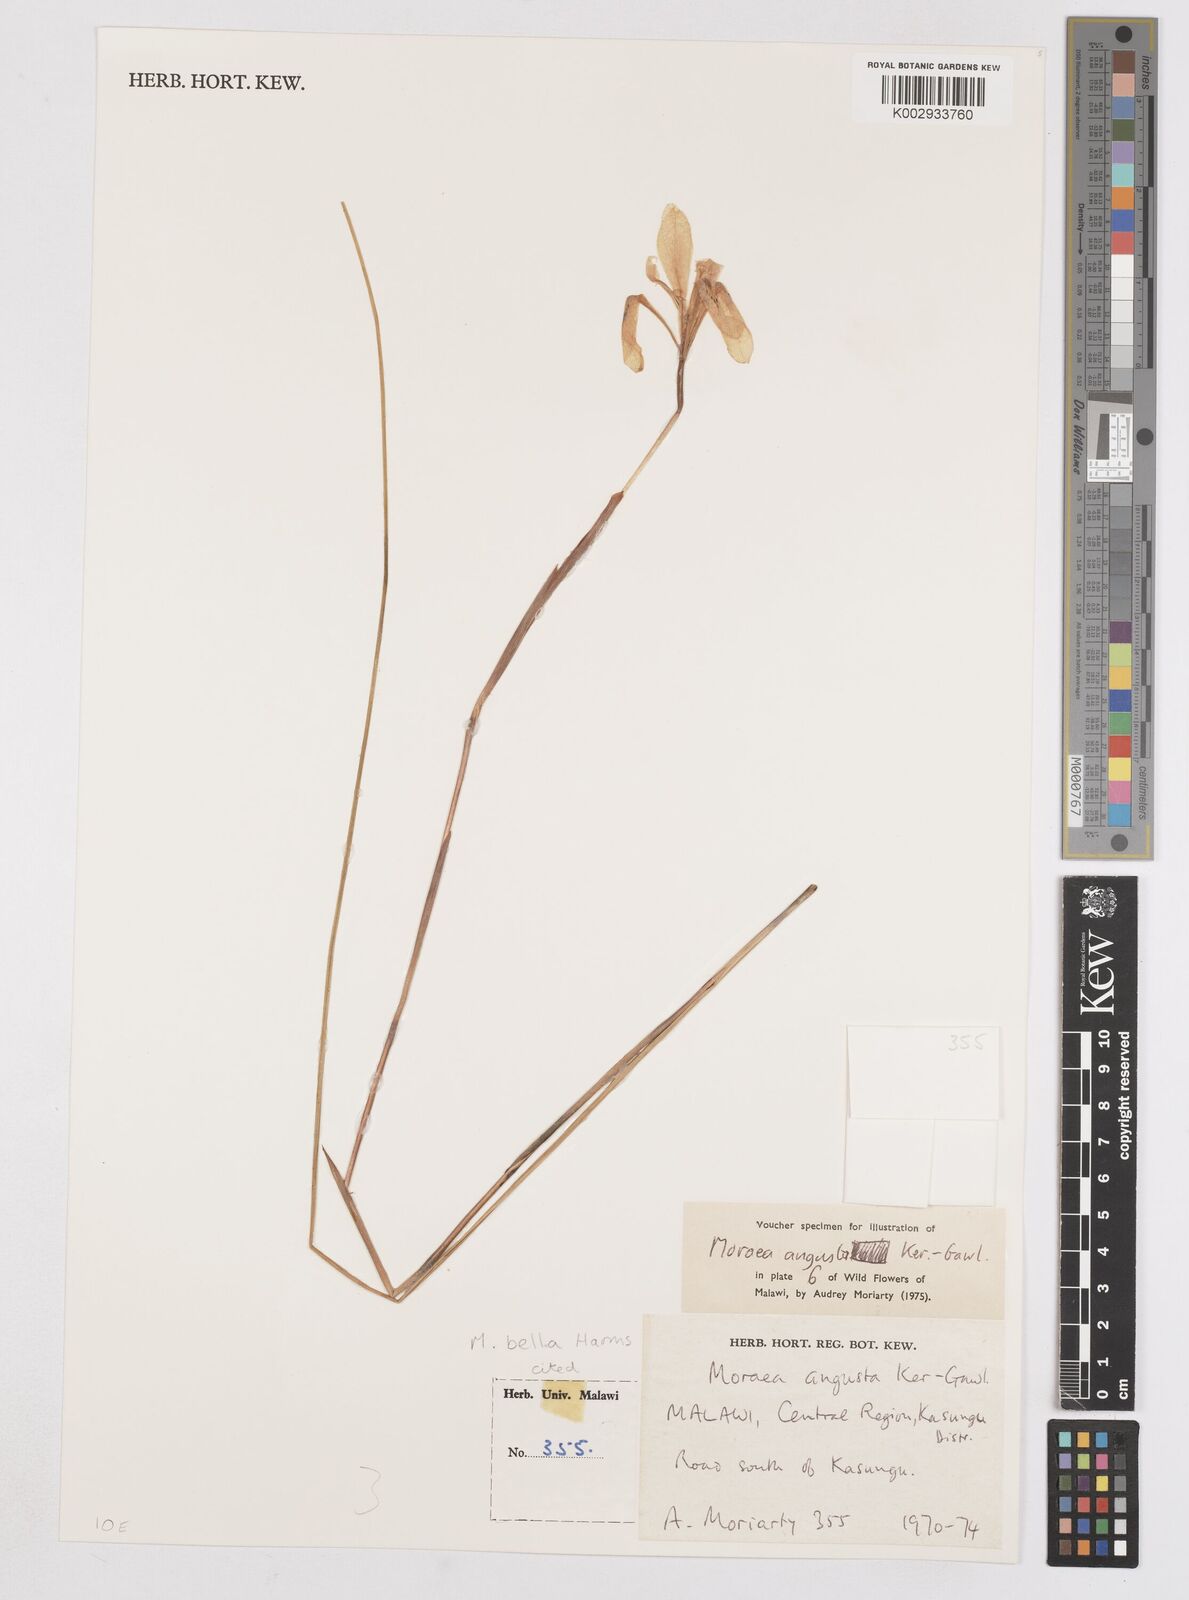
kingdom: Plantae
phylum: Tracheophyta
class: Liliopsida
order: Asparagales
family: Iridaceae
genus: Moraea
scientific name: Moraea bella
